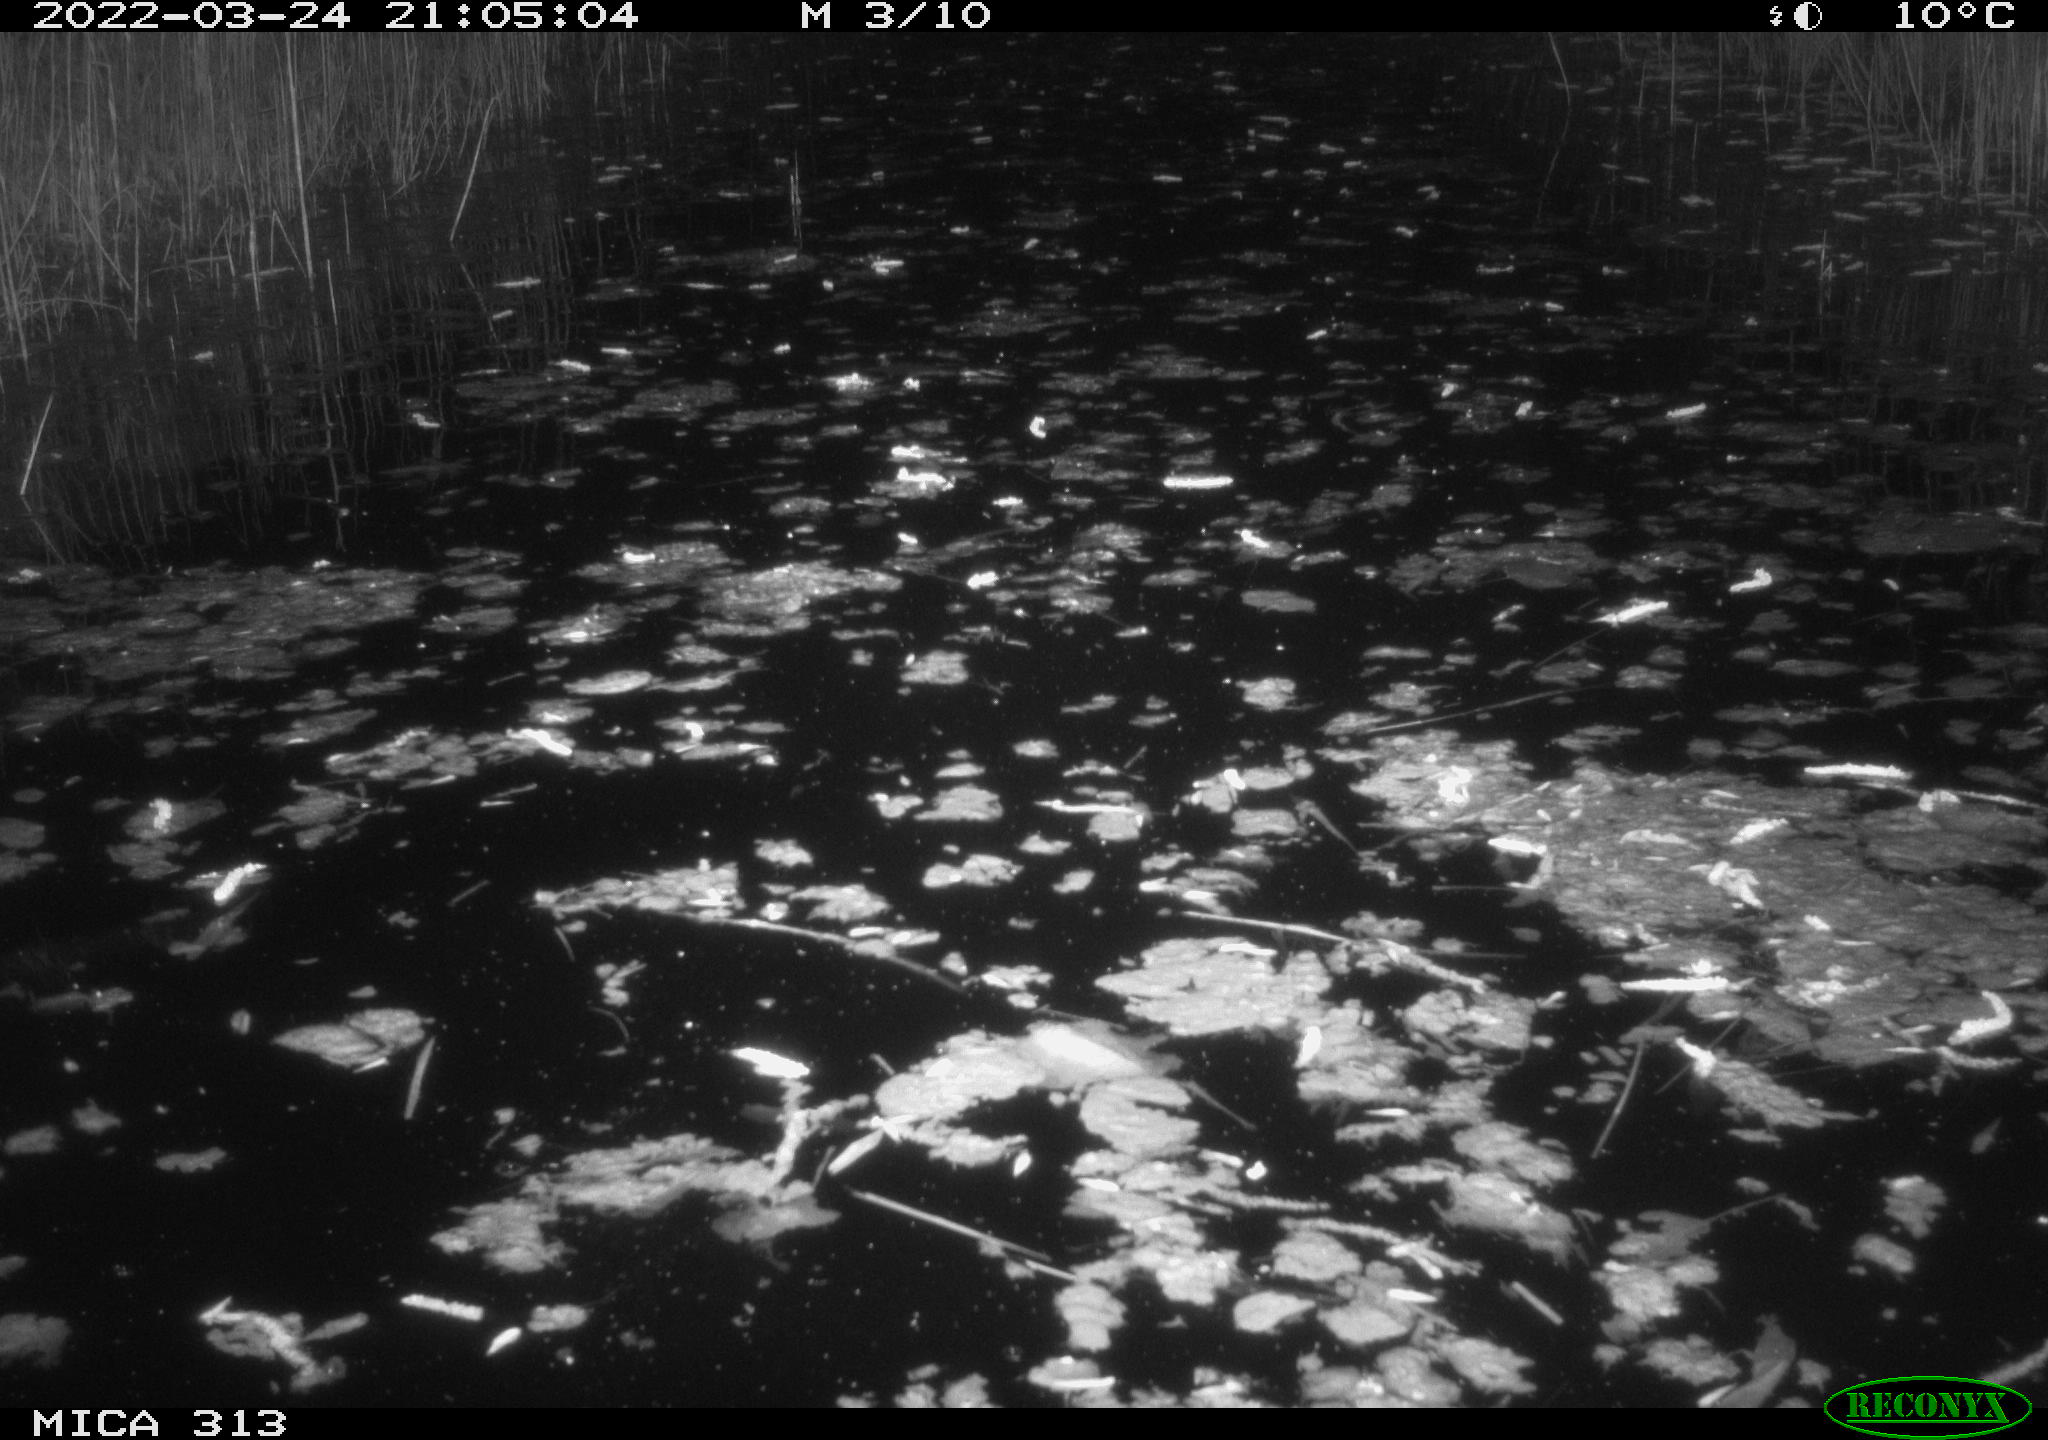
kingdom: Animalia
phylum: Chordata
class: Aves
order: Anseriformes
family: Anatidae
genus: Anas
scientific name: Anas platyrhynchos
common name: Mallard
